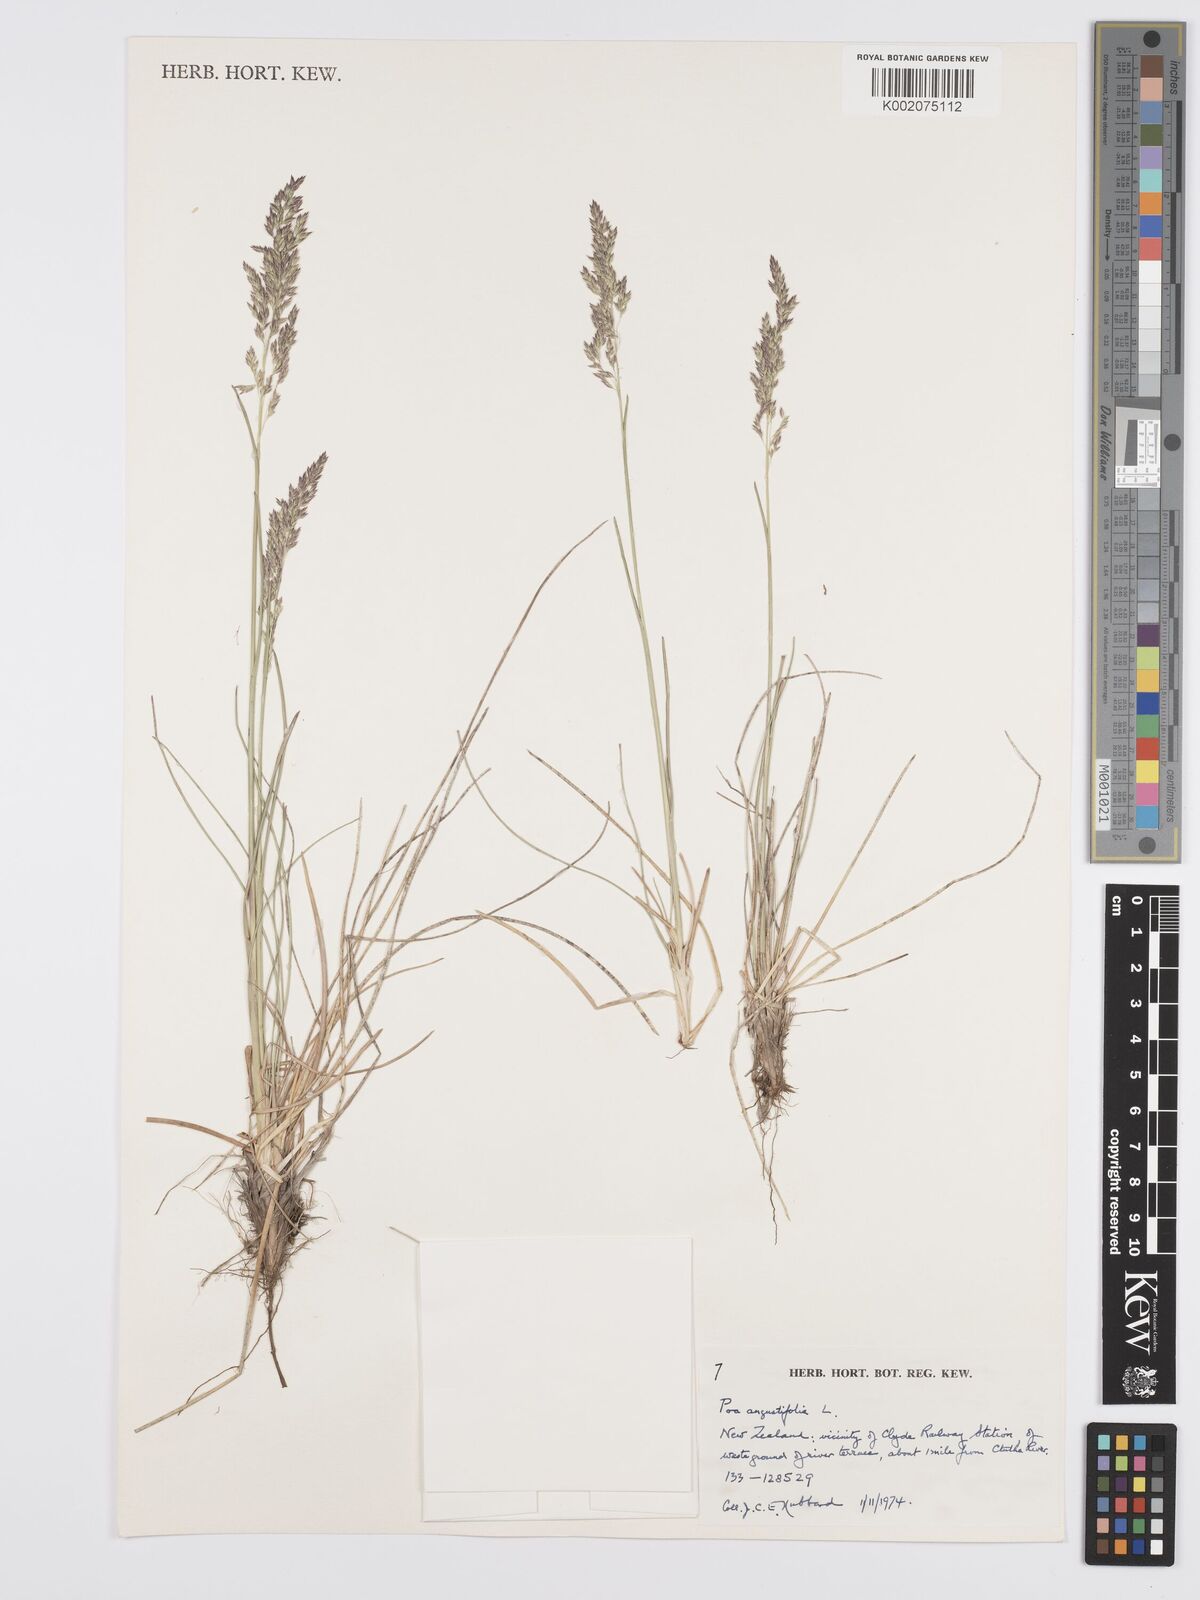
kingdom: Plantae
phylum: Tracheophyta
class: Liliopsida
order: Poales
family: Poaceae
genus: Poa
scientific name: Poa angustifolia
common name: Narrow-leaved meadow-grass
